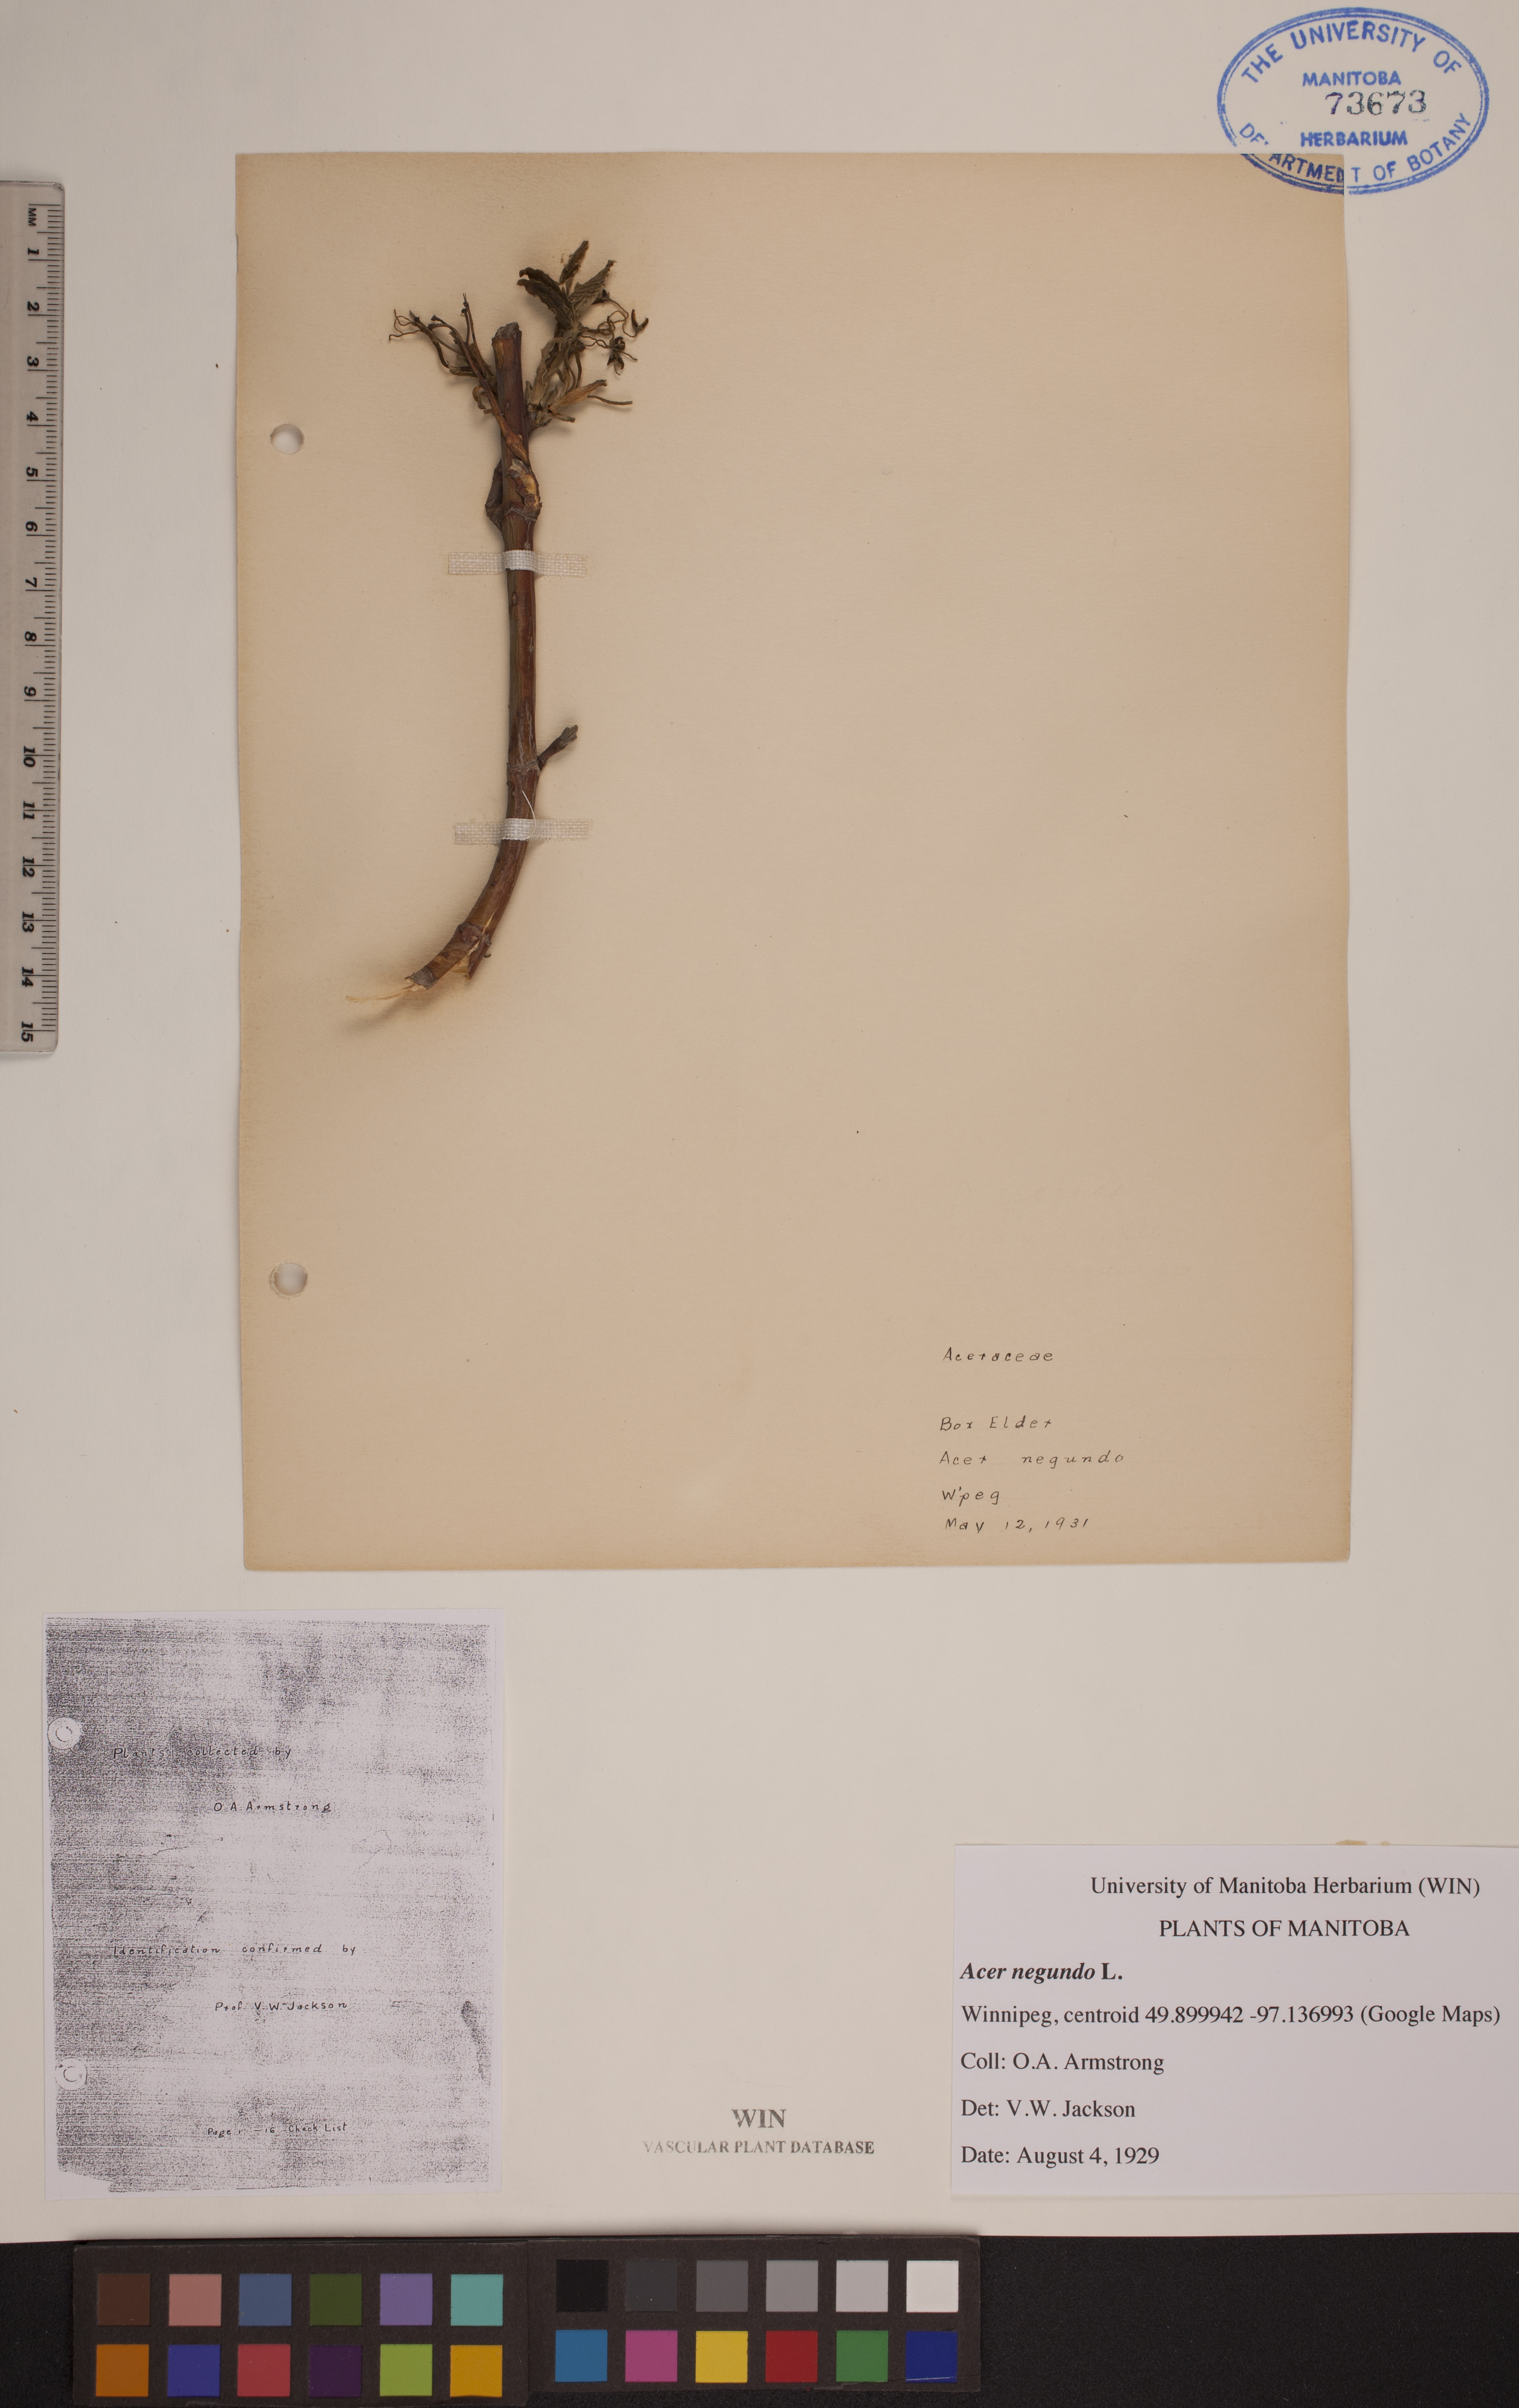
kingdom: Plantae
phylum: Tracheophyta
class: Magnoliopsida
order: Sapindales
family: Sapindaceae
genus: Acer
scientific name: Acer negundo
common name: Ashleaf maple
